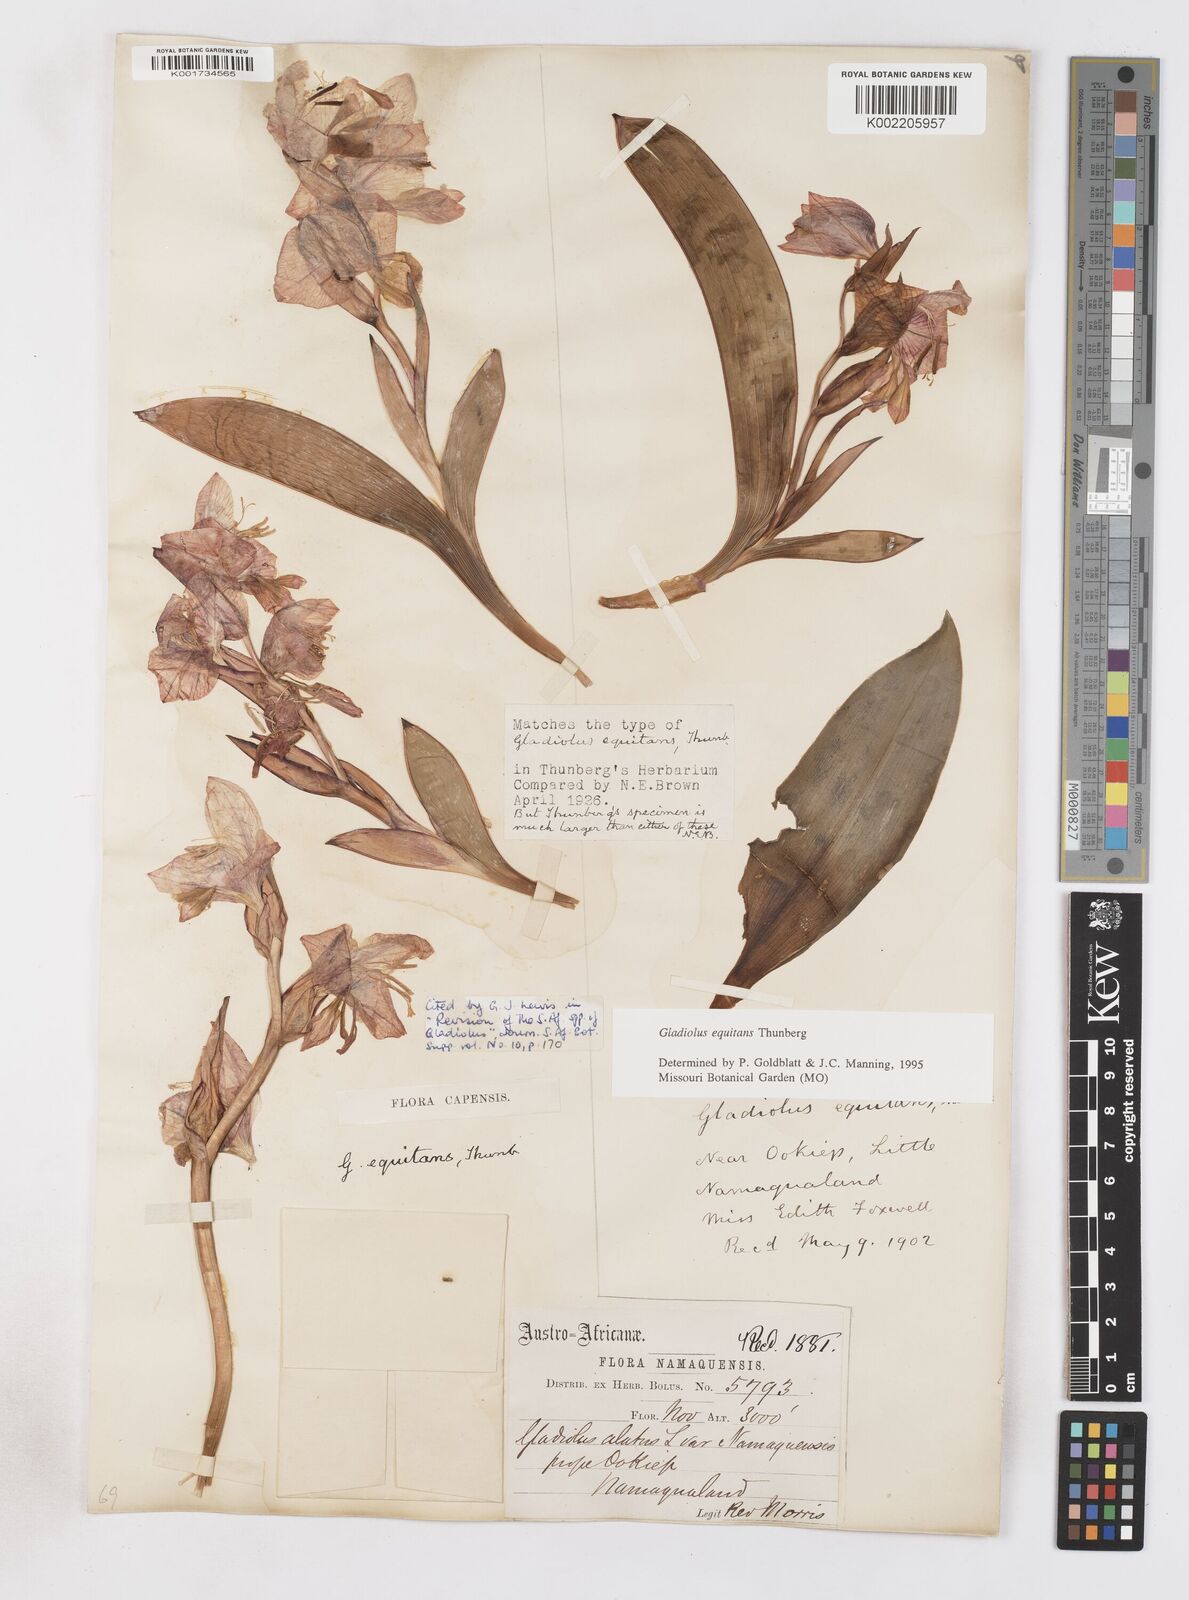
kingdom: Plantae
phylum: Tracheophyta
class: Liliopsida
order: Asparagales
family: Iridaceae
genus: Gladiolus
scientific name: Gladiolus equitans
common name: Large red kalkoentjie
